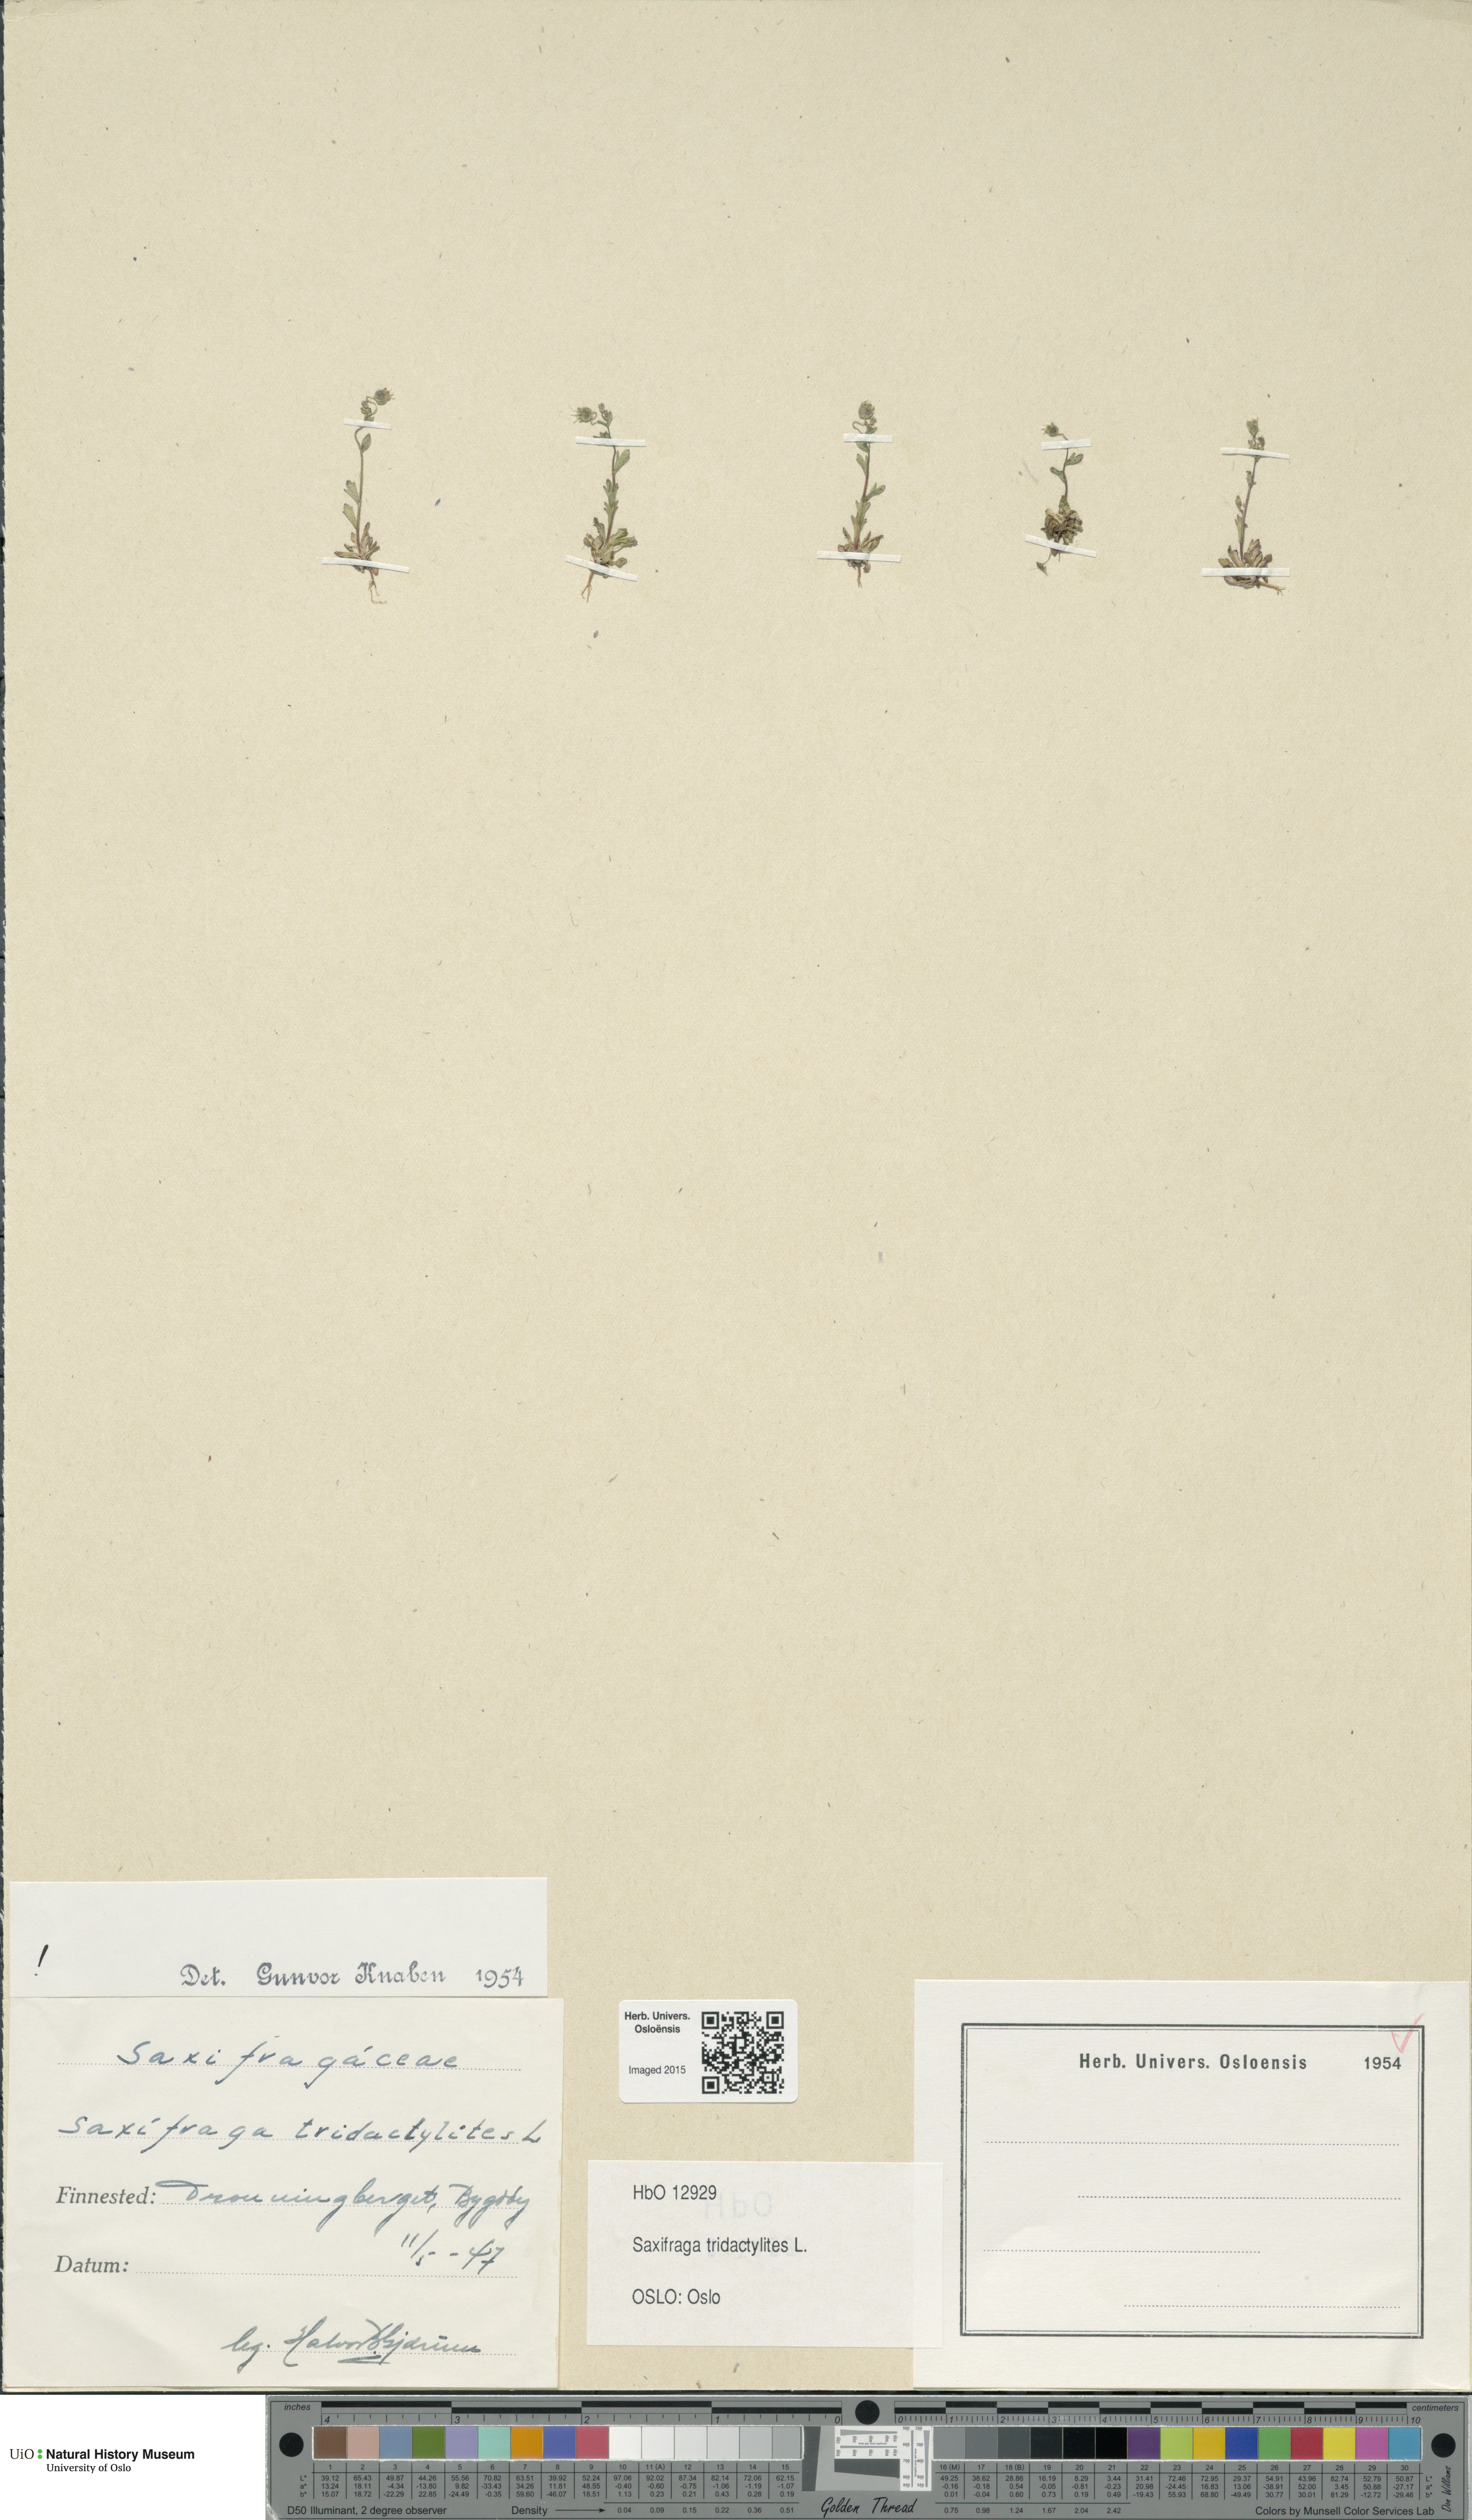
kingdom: Plantae
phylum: Tracheophyta
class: Magnoliopsida
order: Saxifragales
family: Saxifragaceae
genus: Saxifraga
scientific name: Saxifraga tridactylites
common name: Rue-leaved saxifrage
